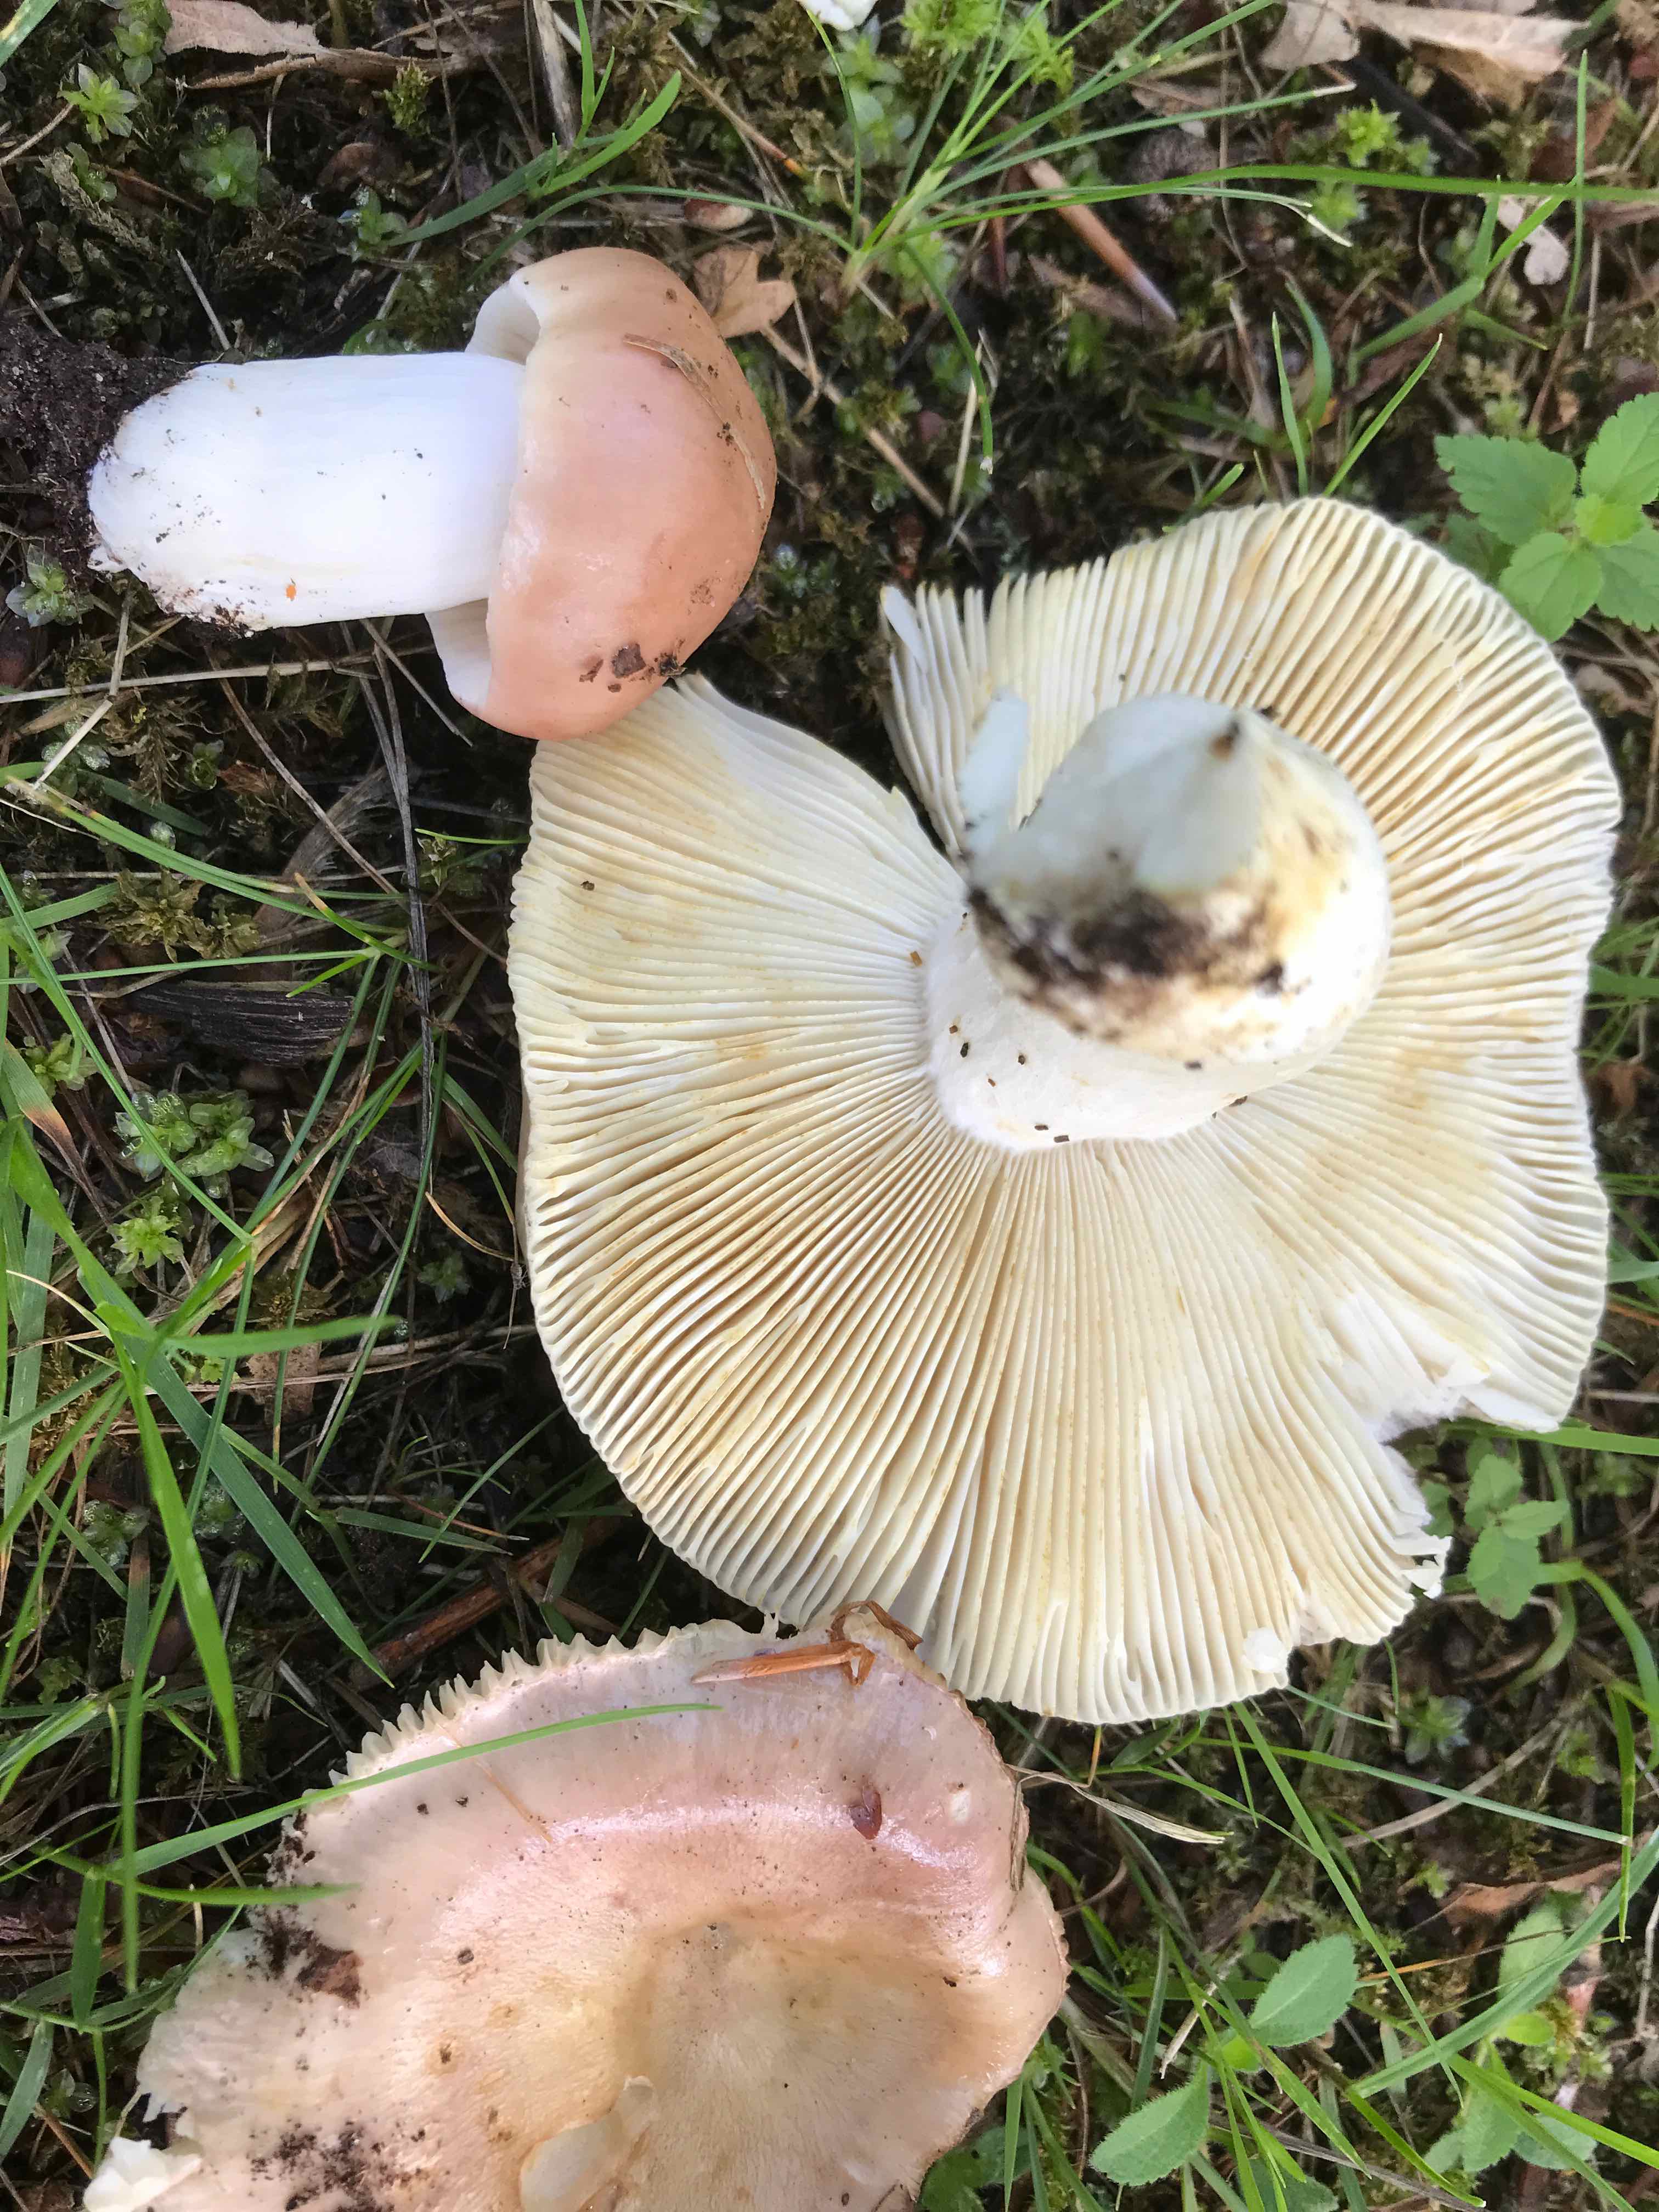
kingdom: Fungi
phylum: Basidiomycota
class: Agaricomycetes
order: Russulales
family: Russulaceae
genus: Russula
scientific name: Russula vesca
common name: spiselig skørhat
